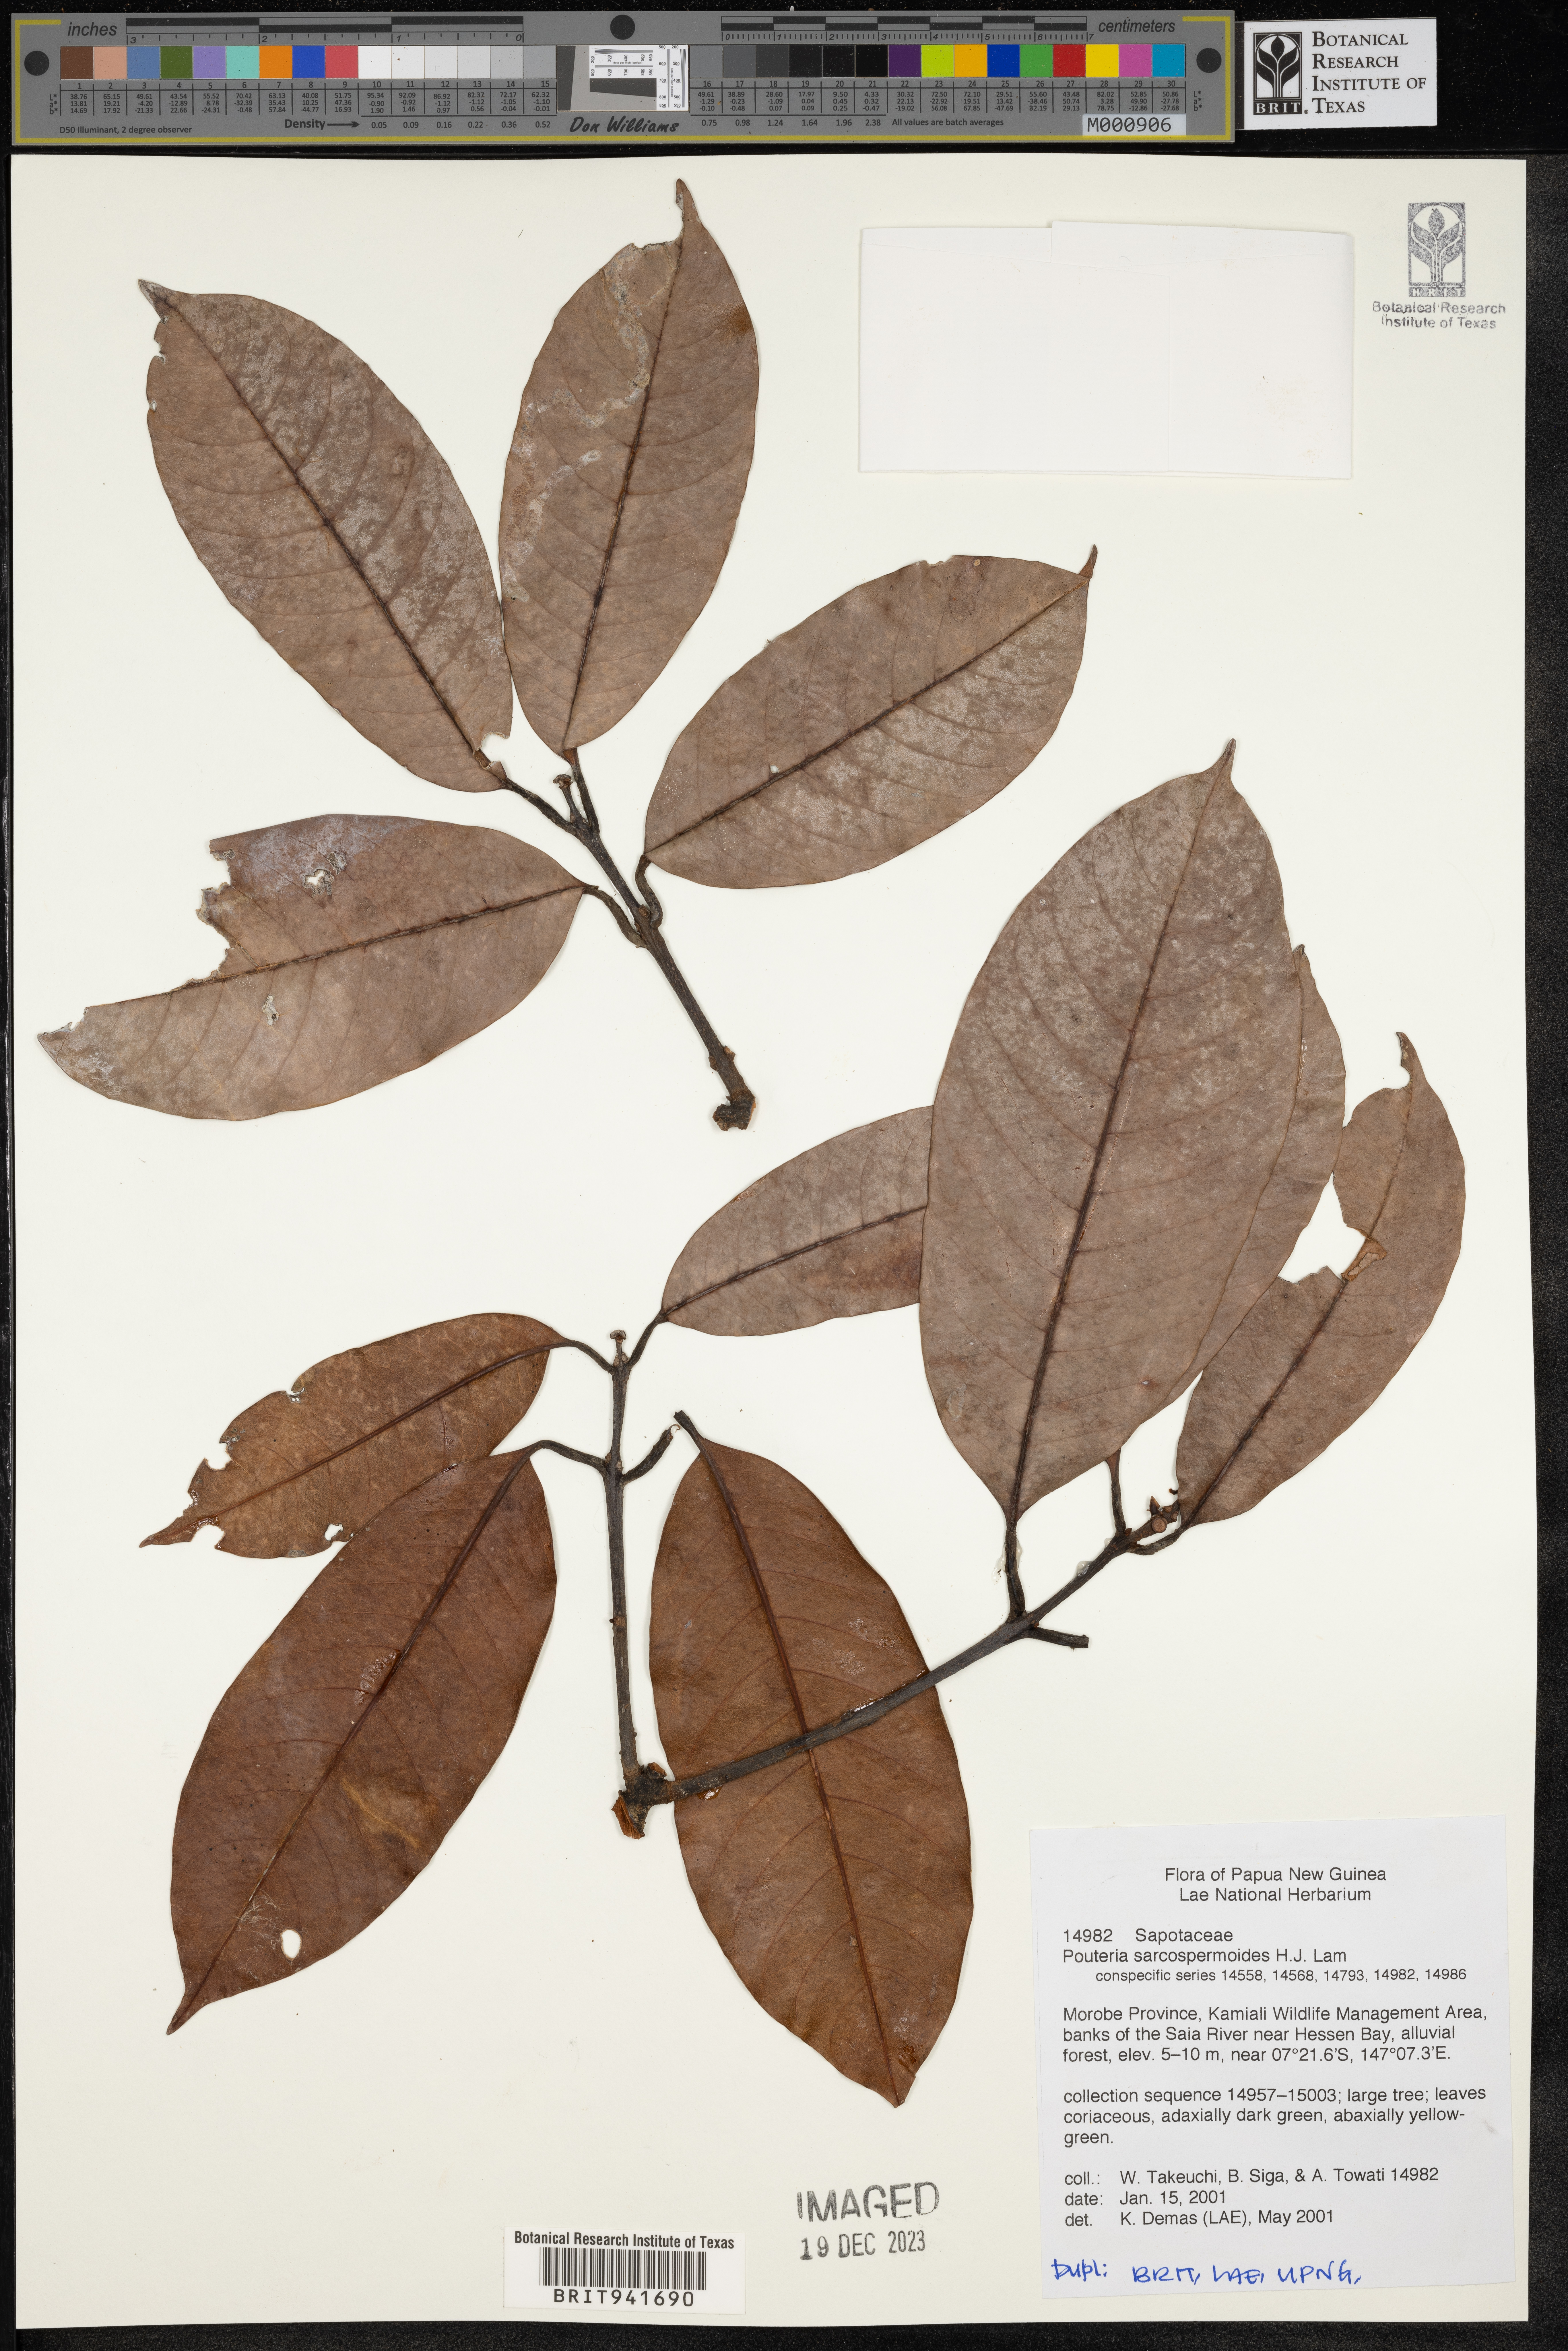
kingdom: Plantae
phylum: Tracheophyta
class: Magnoliopsida
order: Ericales
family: Sapotaceae
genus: Pouteria
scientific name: Pouteria
